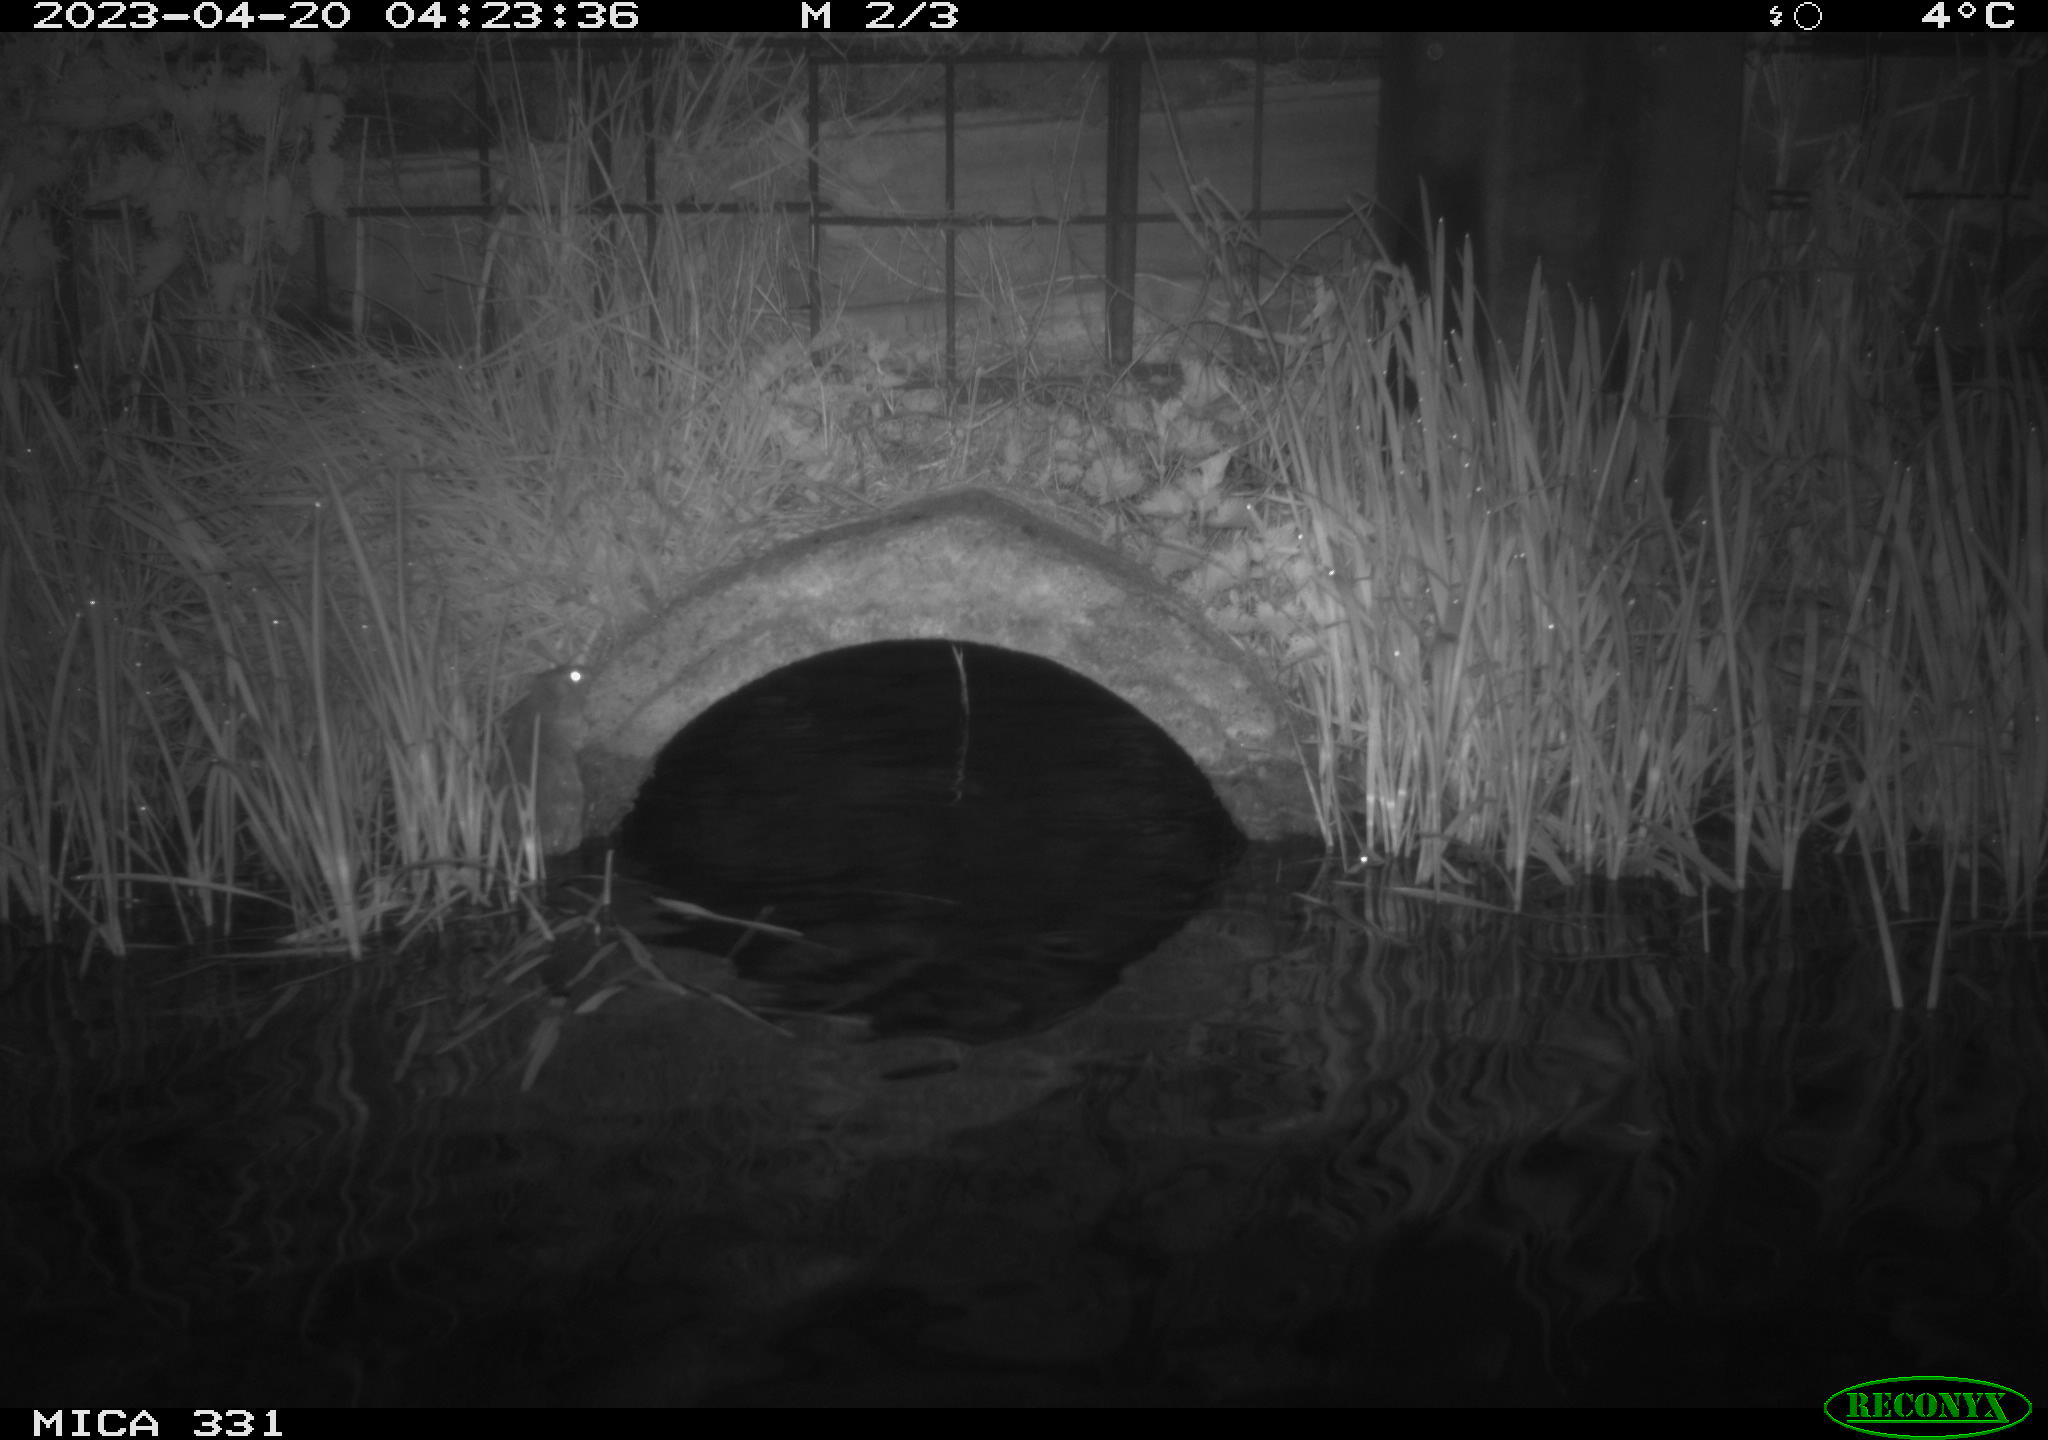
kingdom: Animalia
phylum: Chordata
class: Mammalia
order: Rodentia
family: Muridae
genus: Rattus
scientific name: Rattus norvegicus
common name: Brown rat
